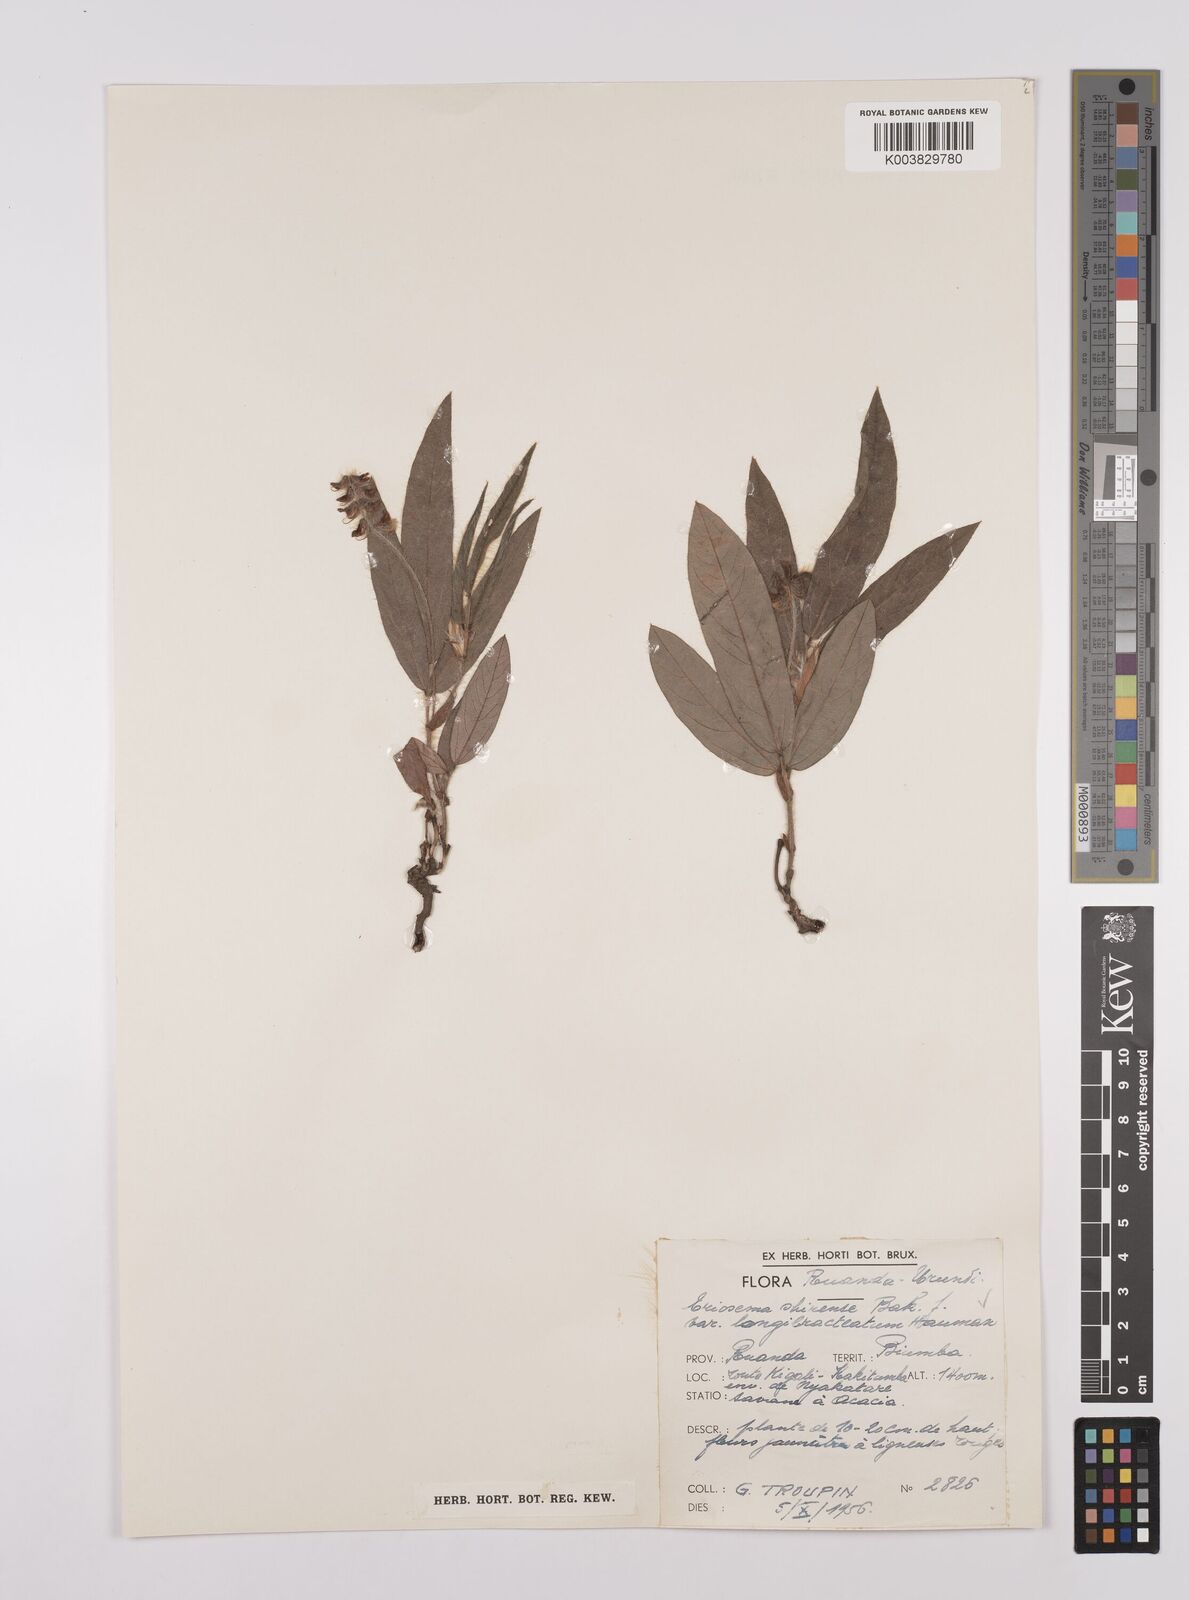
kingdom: Plantae
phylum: Tracheophyta
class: Magnoliopsida
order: Fabales
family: Fabaceae
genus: Eriosema
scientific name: Eriosema shirense
